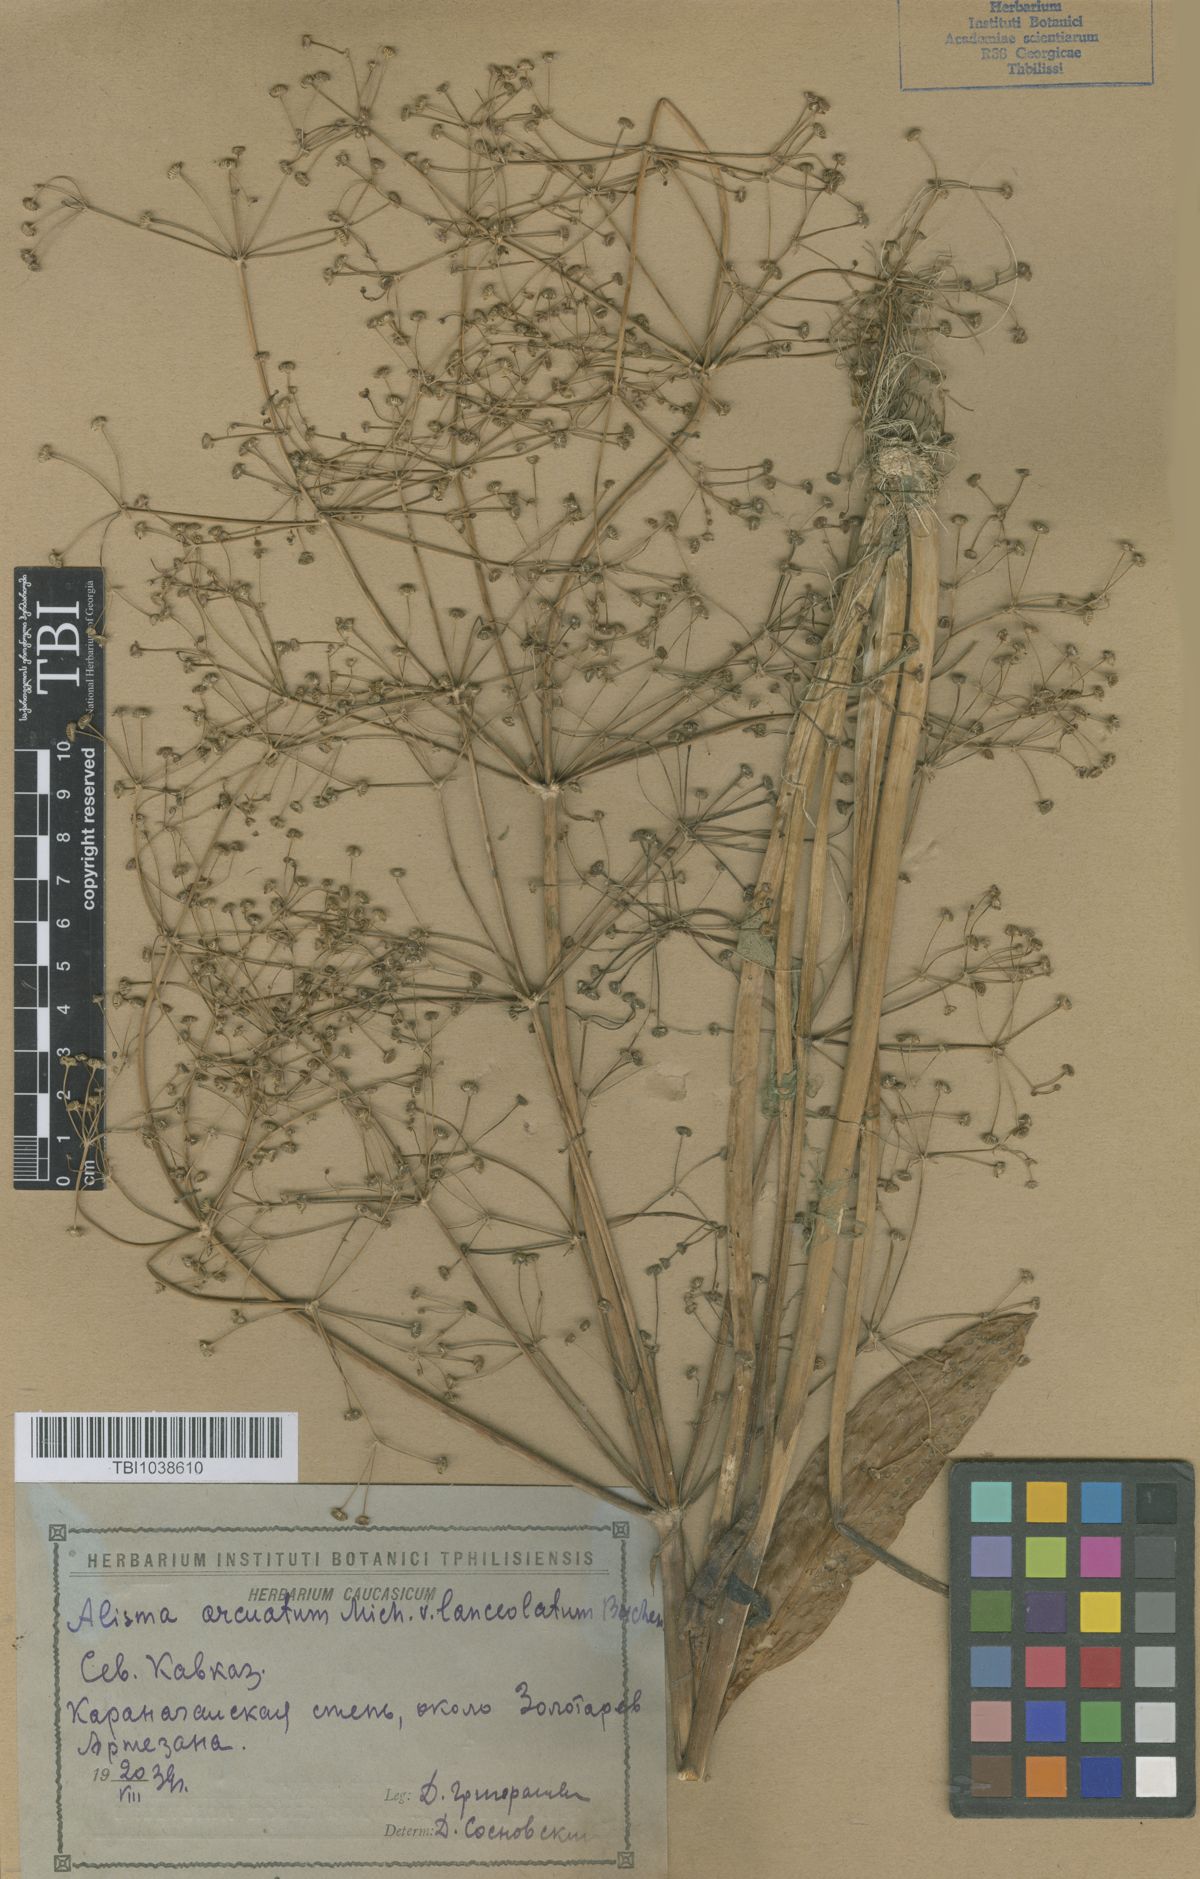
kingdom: Plantae
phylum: Tracheophyta
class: Liliopsida
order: Alismatales
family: Alismataceae
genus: Alisma
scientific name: Alisma gramineum
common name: Ribbon-leaved water-plantain
